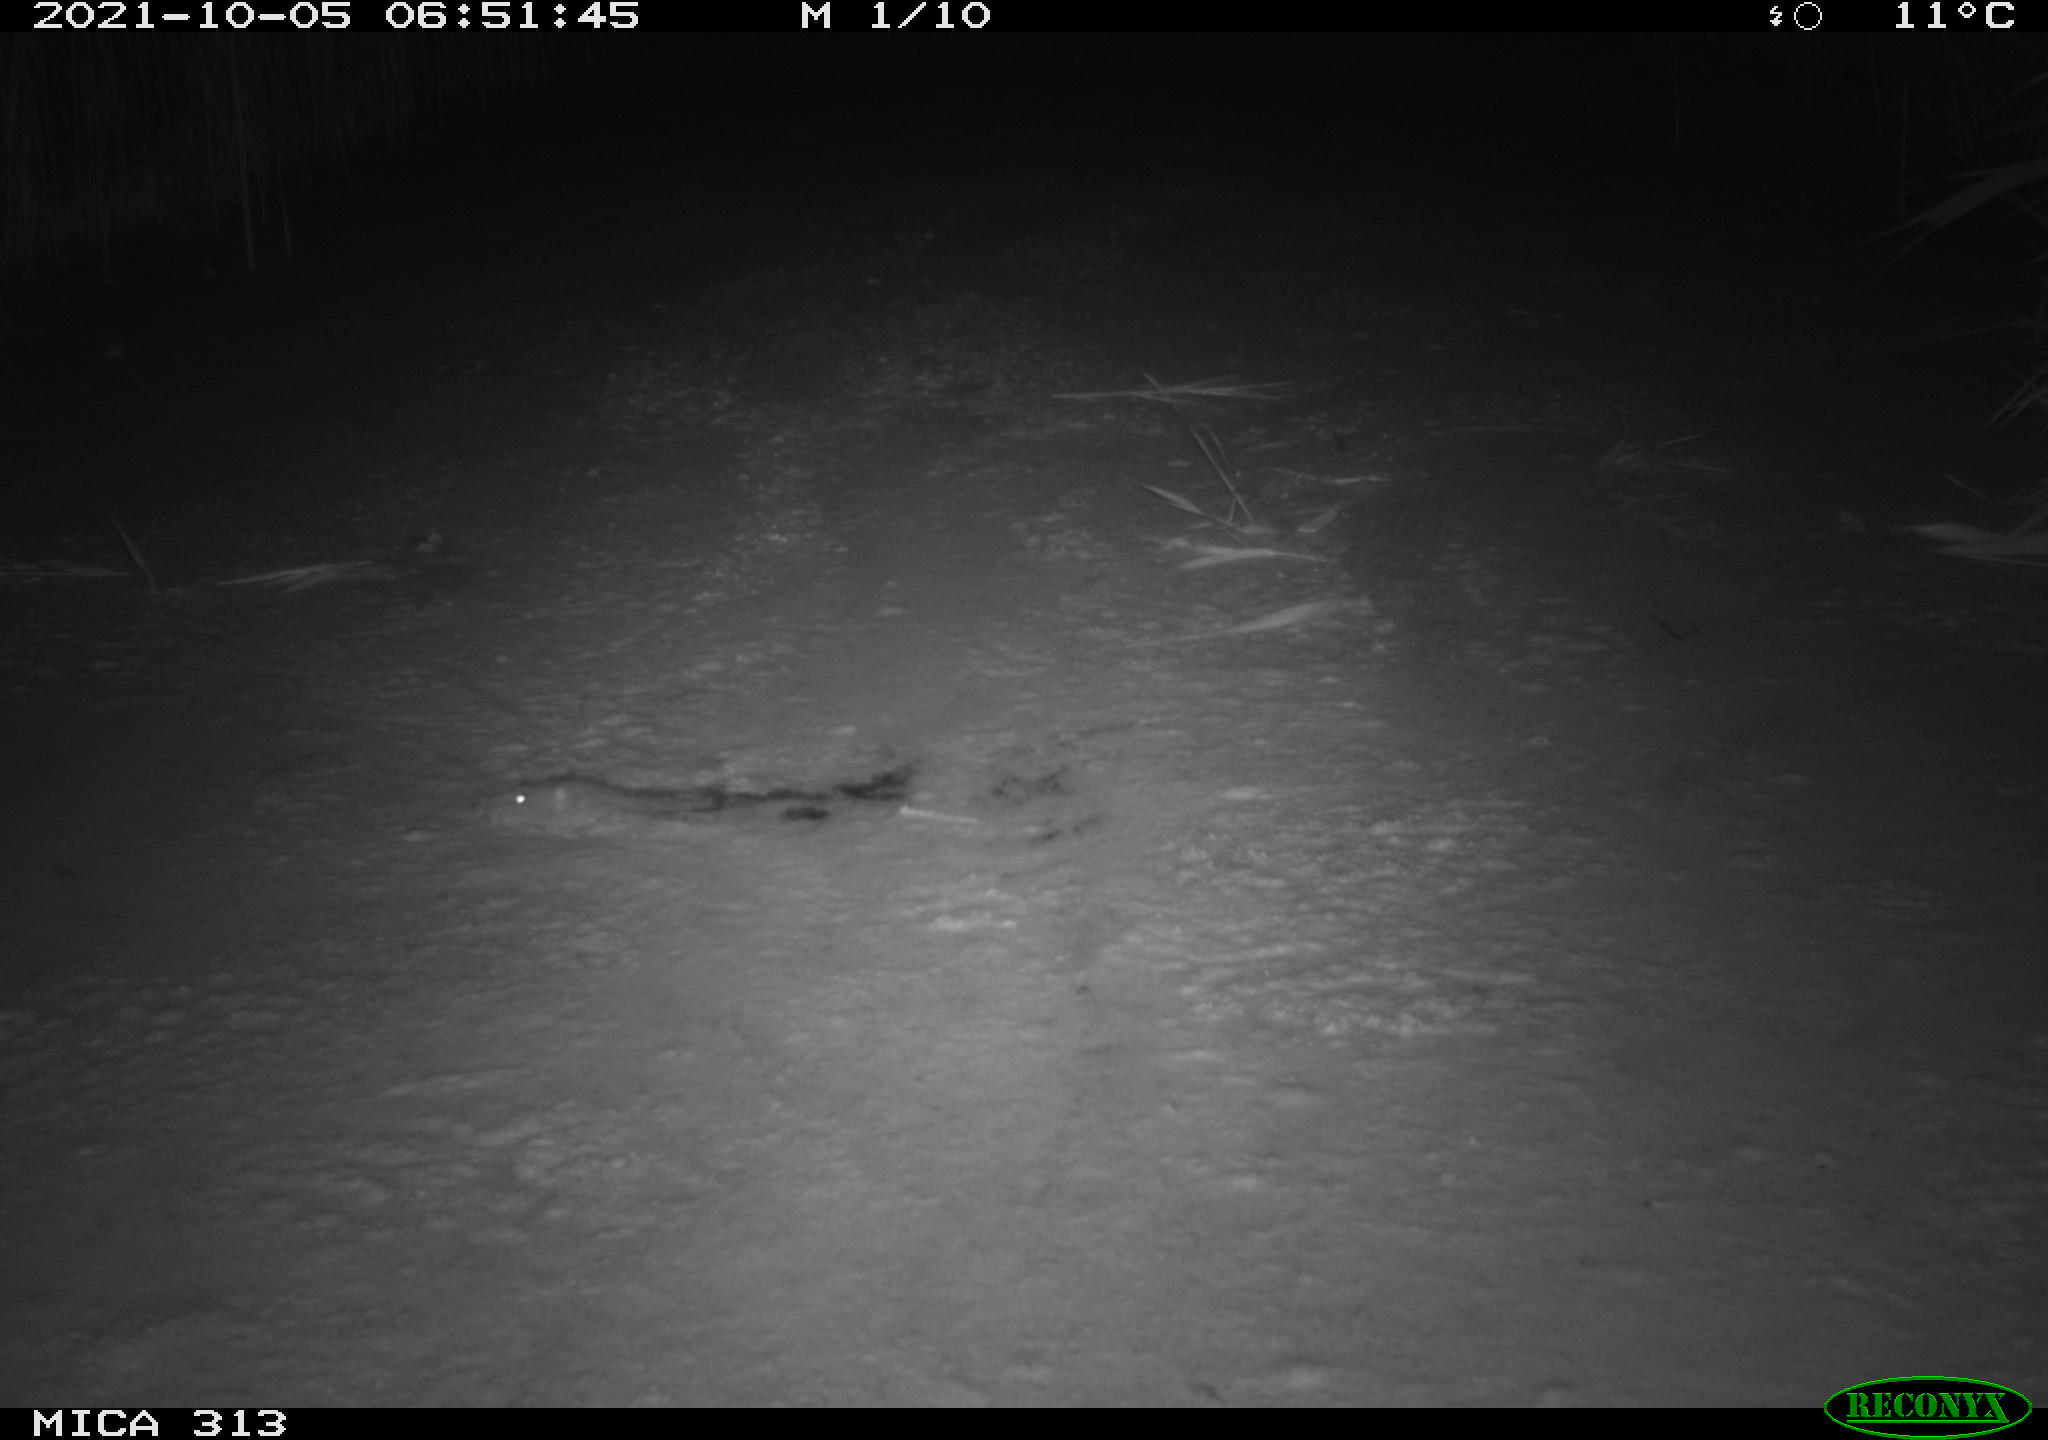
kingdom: Animalia
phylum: Chordata
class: Mammalia
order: Rodentia
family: Muridae
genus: Rattus
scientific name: Rattus norvegicus
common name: Brown rat
